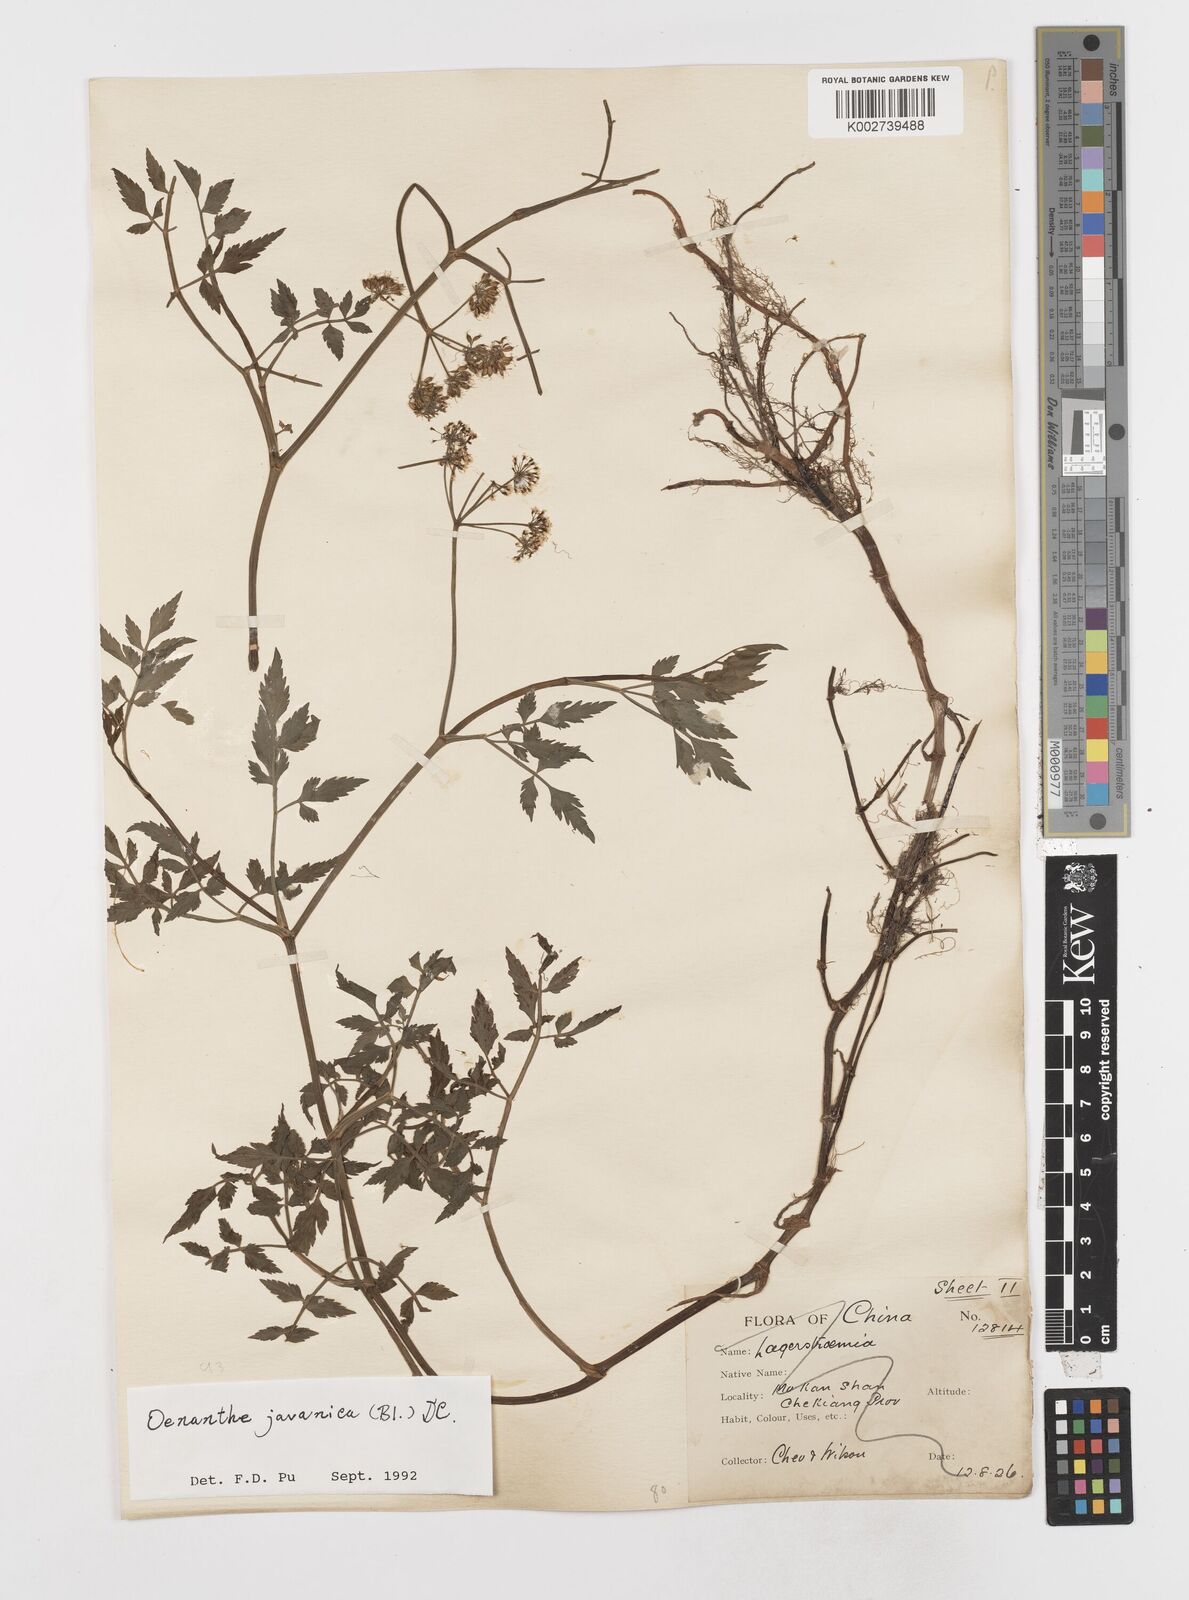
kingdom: Plantae
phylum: Tracheophyta
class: Magnoliopsida
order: Apiales
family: Apiaceae
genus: Oenanthe
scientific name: Oenanthe javanica
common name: Java water-dropwort
